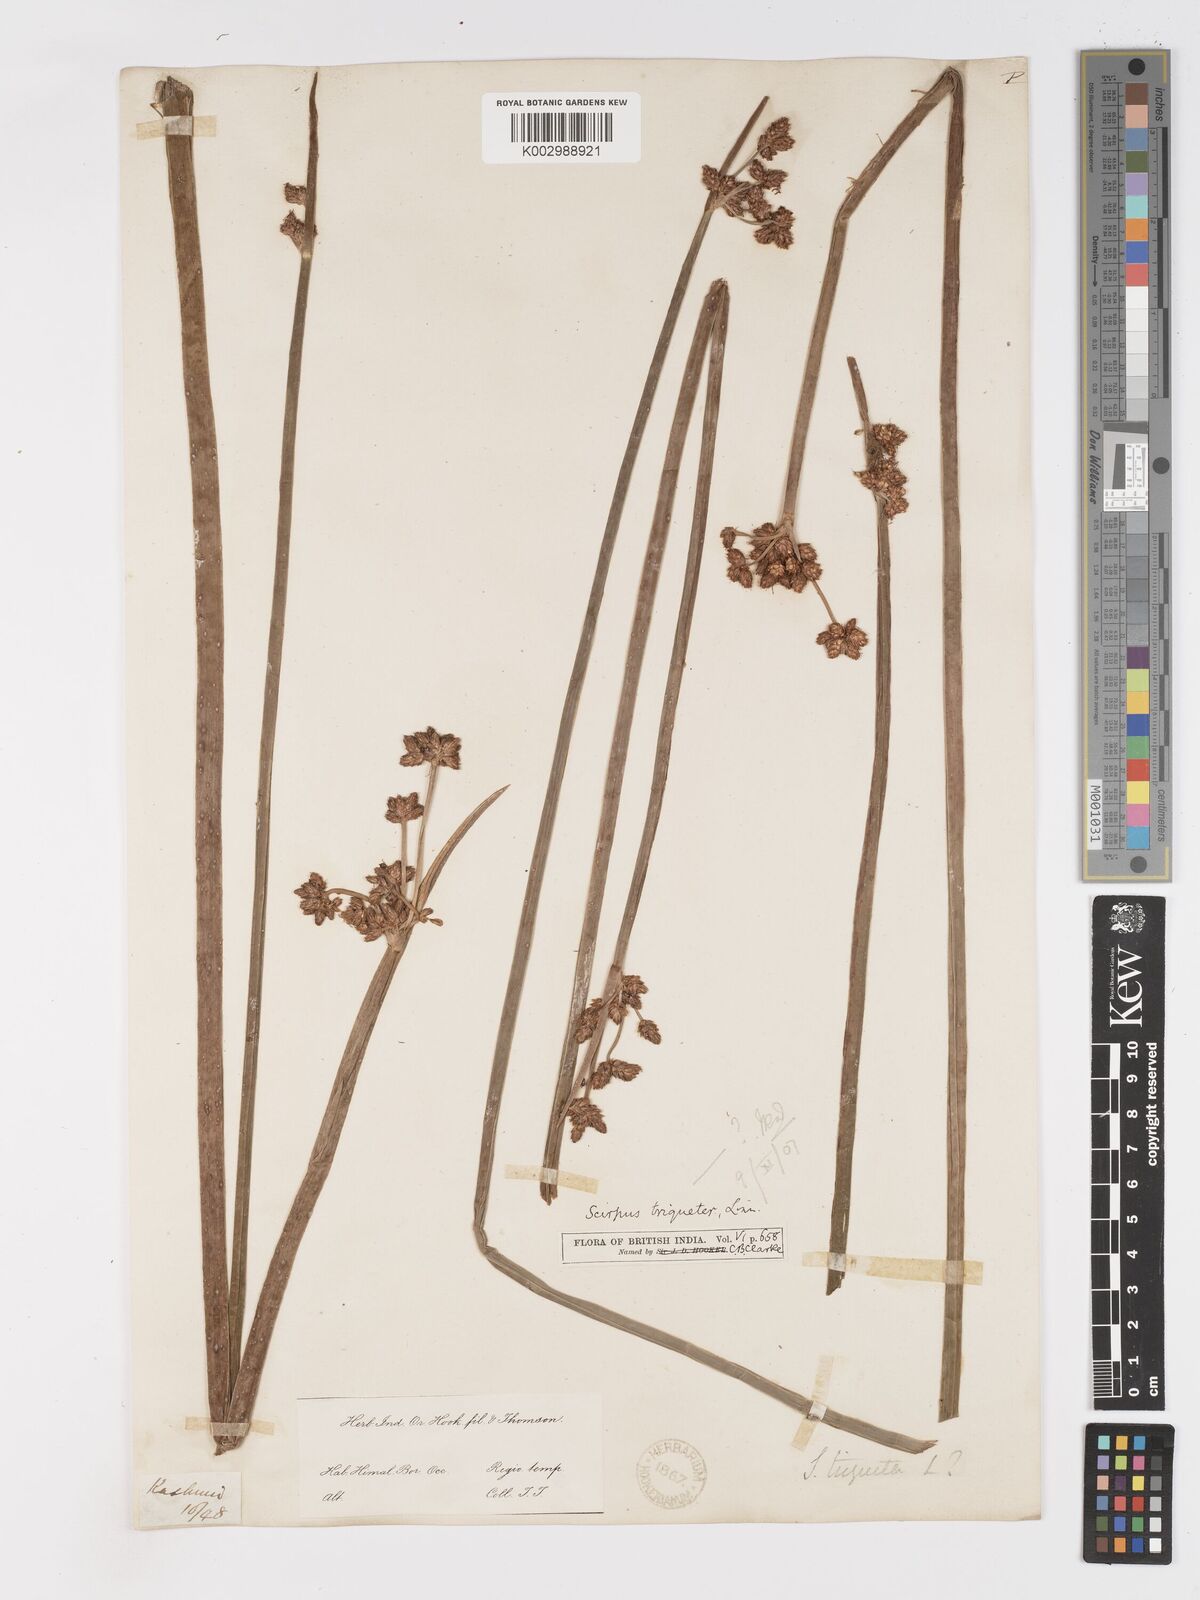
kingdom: Plantae
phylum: Tracheophyta
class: Liliopsida
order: Poales
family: Cyperaceae
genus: Schoenoplectus
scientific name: Schoenoplectus triqueter
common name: Triangular club-rush
